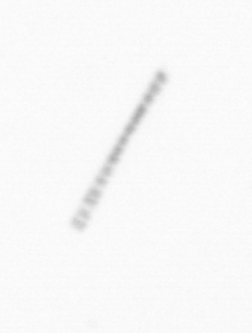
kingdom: Chromista
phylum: Ochrophyta
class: Bacillariophyceae
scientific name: Bacillariophyceae
